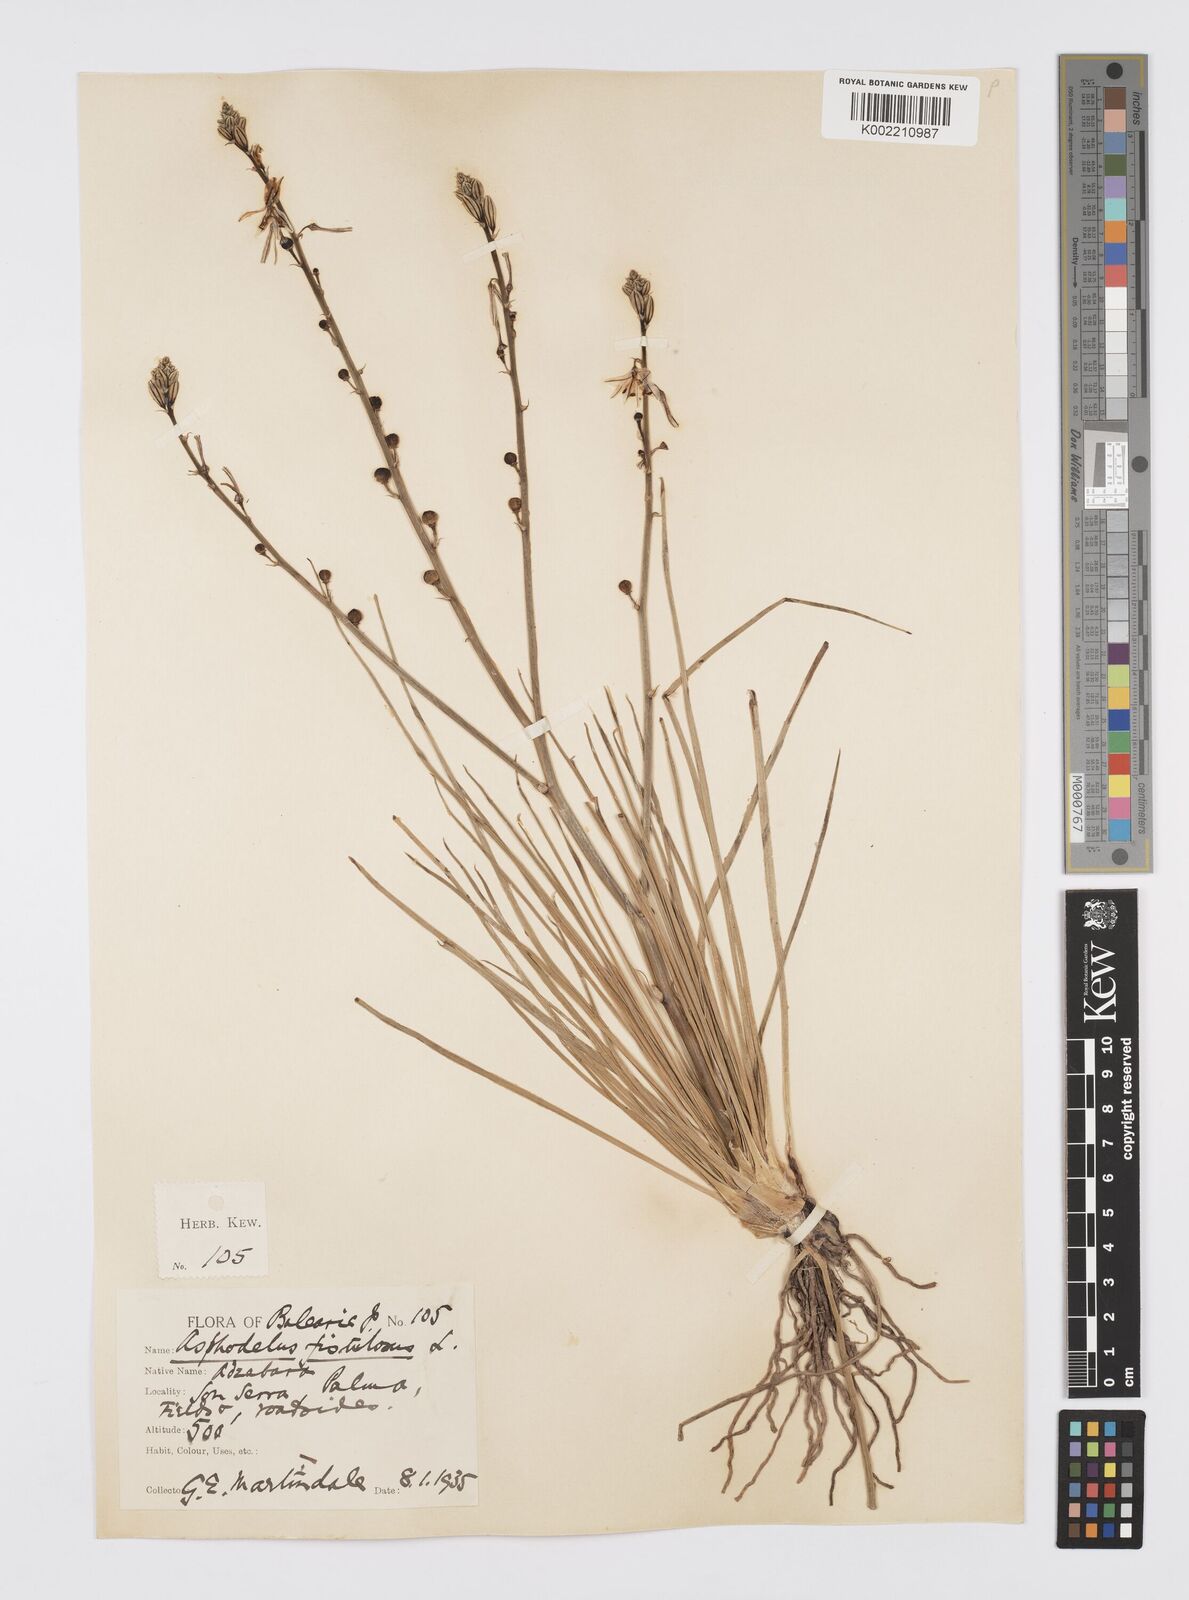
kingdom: Plantae
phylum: Tracheophyta
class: Liliopsida
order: Asparagales
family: Asphodelaceae
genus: Asphodelus
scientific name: Asphodelus fistulosus
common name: Onionweed
